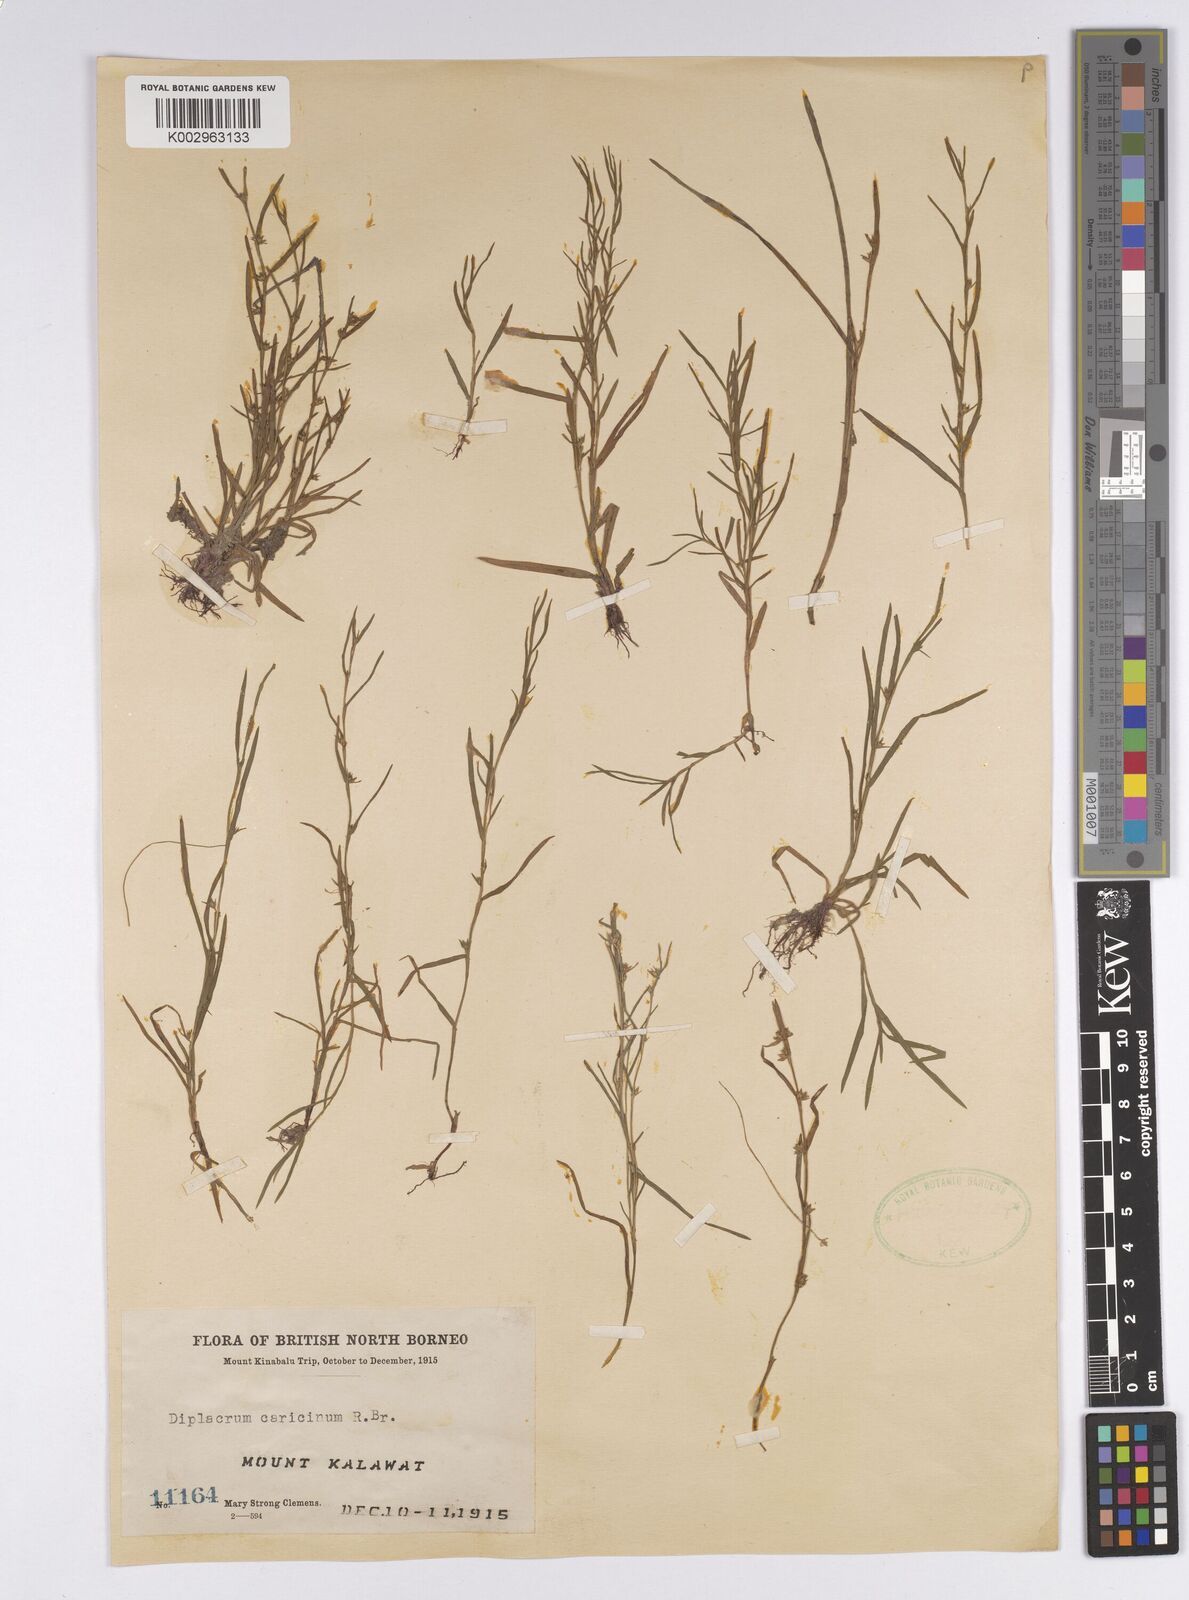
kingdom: Plantae
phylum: Tracheophyta
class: Liliopsida
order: Poales
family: Cyperaceae
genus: Diplacrum
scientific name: Diplacrum caricinum
